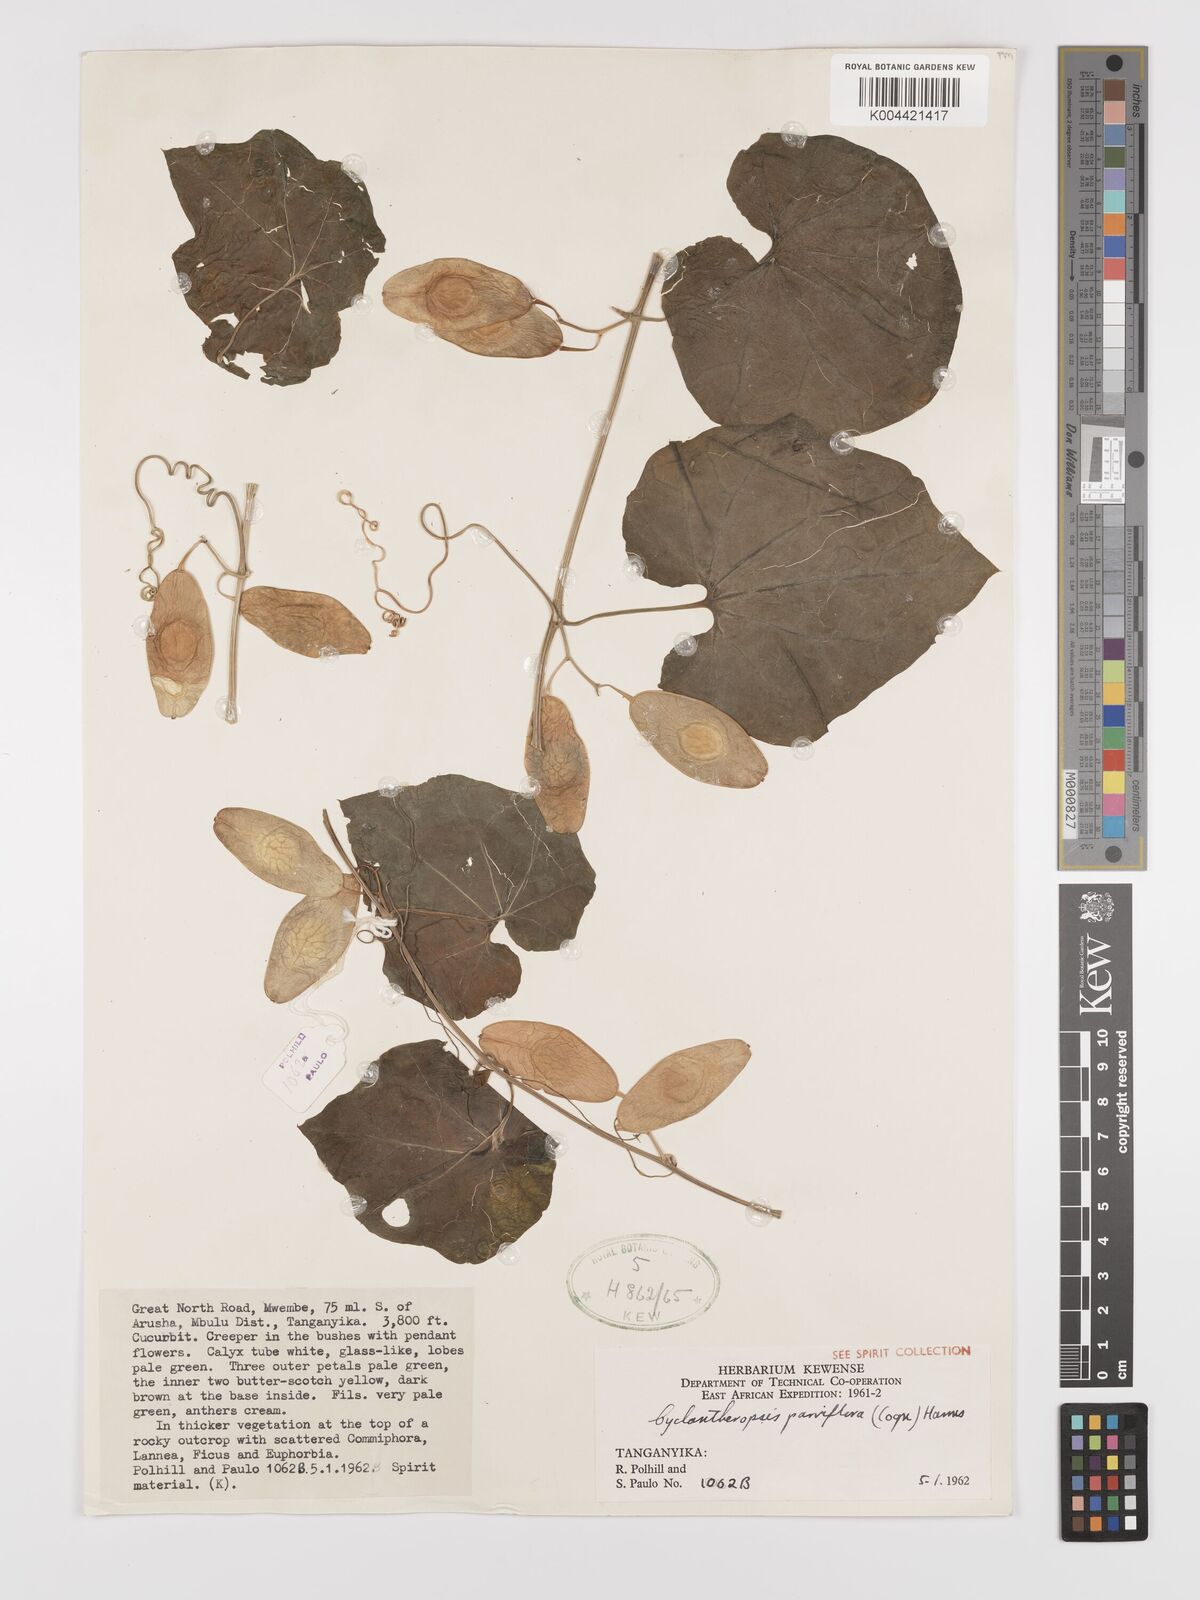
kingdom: Plantae
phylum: Tracheophyta
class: Magnoliopsida
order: Cucurbitales
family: Cucurbitaceae
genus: Cyclantheropsis
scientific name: Cyclantheropsis parviflora
